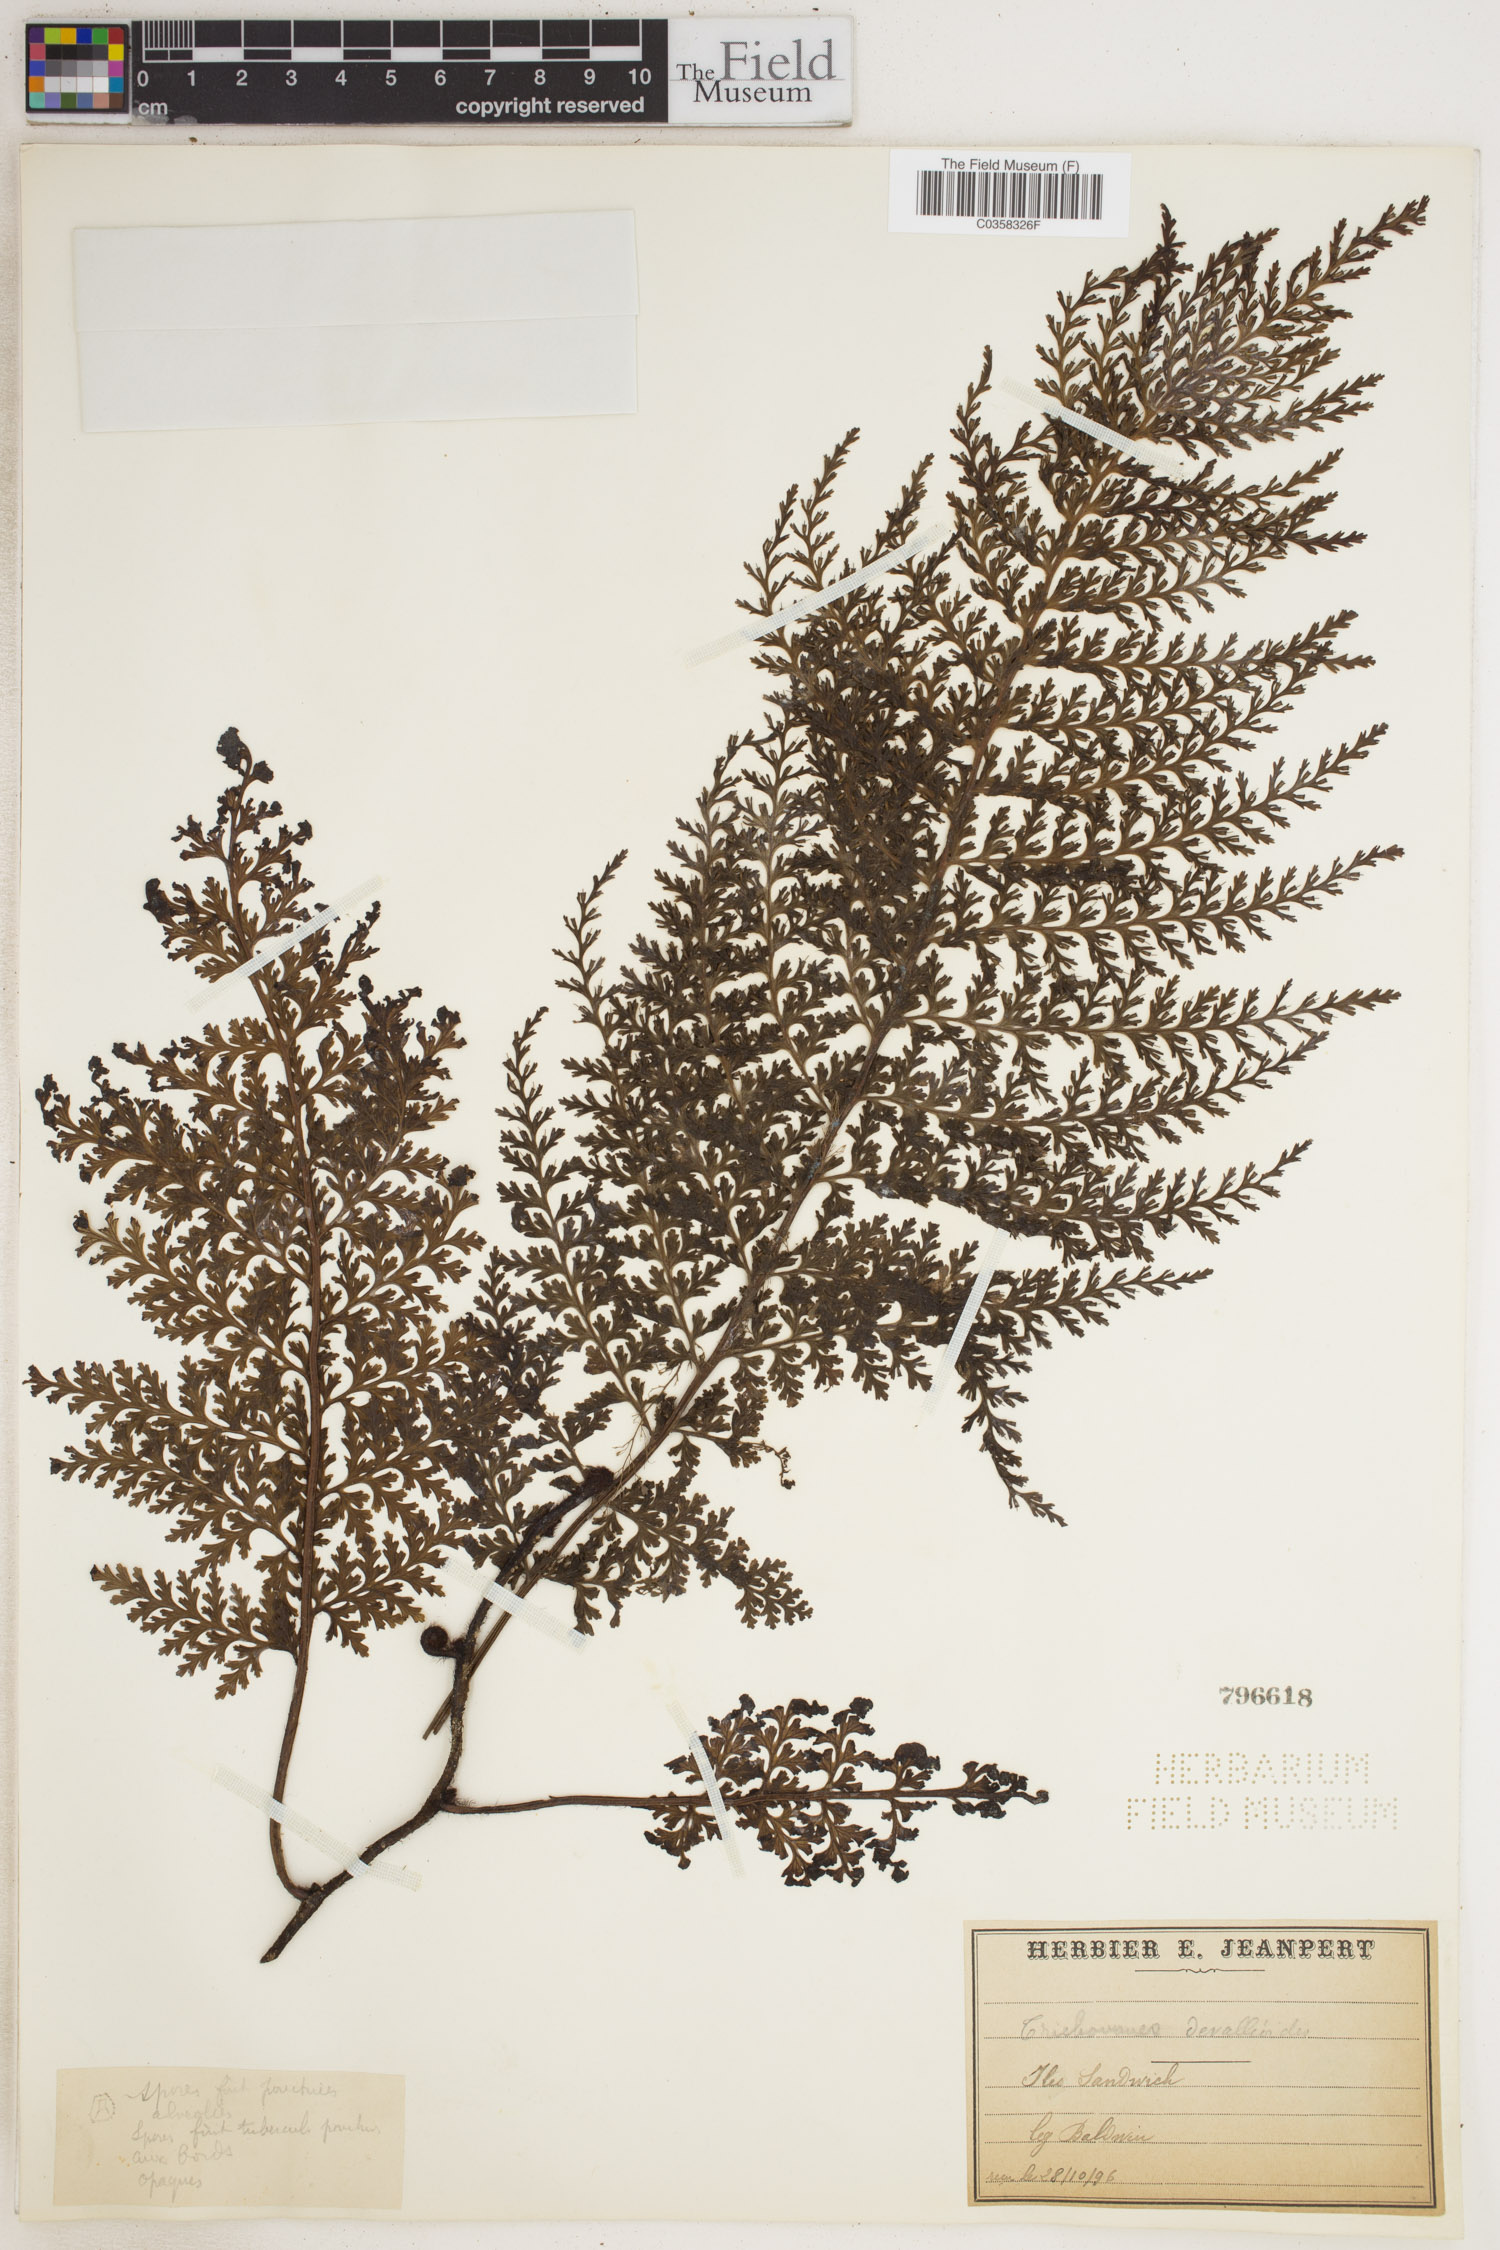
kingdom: Plantae
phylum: Tracheophyta
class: Polypodiopsida
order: Hymenophyllales
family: Hymenophyllaceae
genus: Vandenboschia
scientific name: Vandenboschia davallioides
